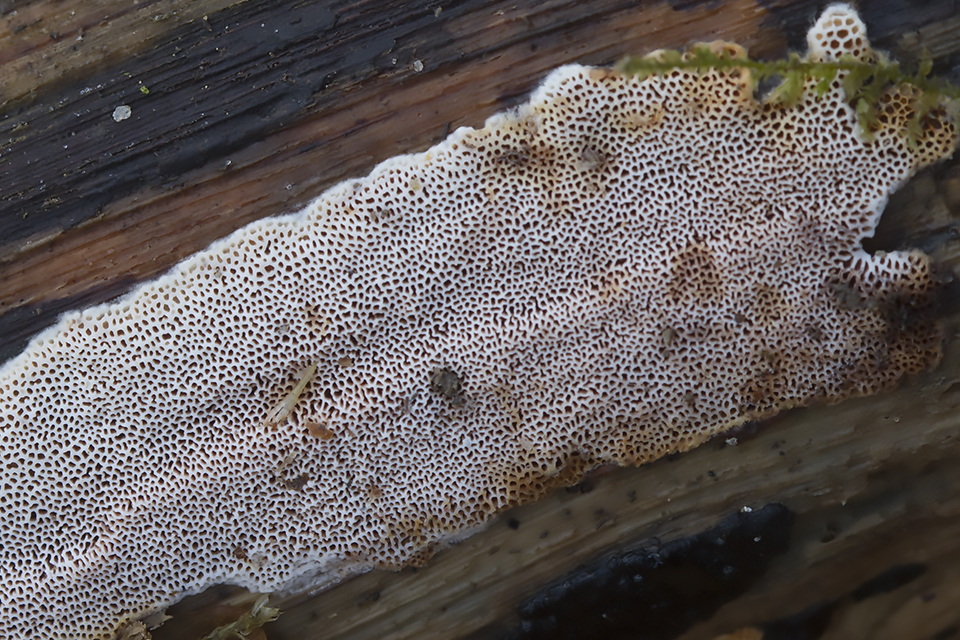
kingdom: Fungi
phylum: Basidiomycota
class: Agaricomycetes
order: Polyporales
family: Irpicaceae
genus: Ceriporia
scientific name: Ceriporia purpurea
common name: purpur-voksporesvamp
